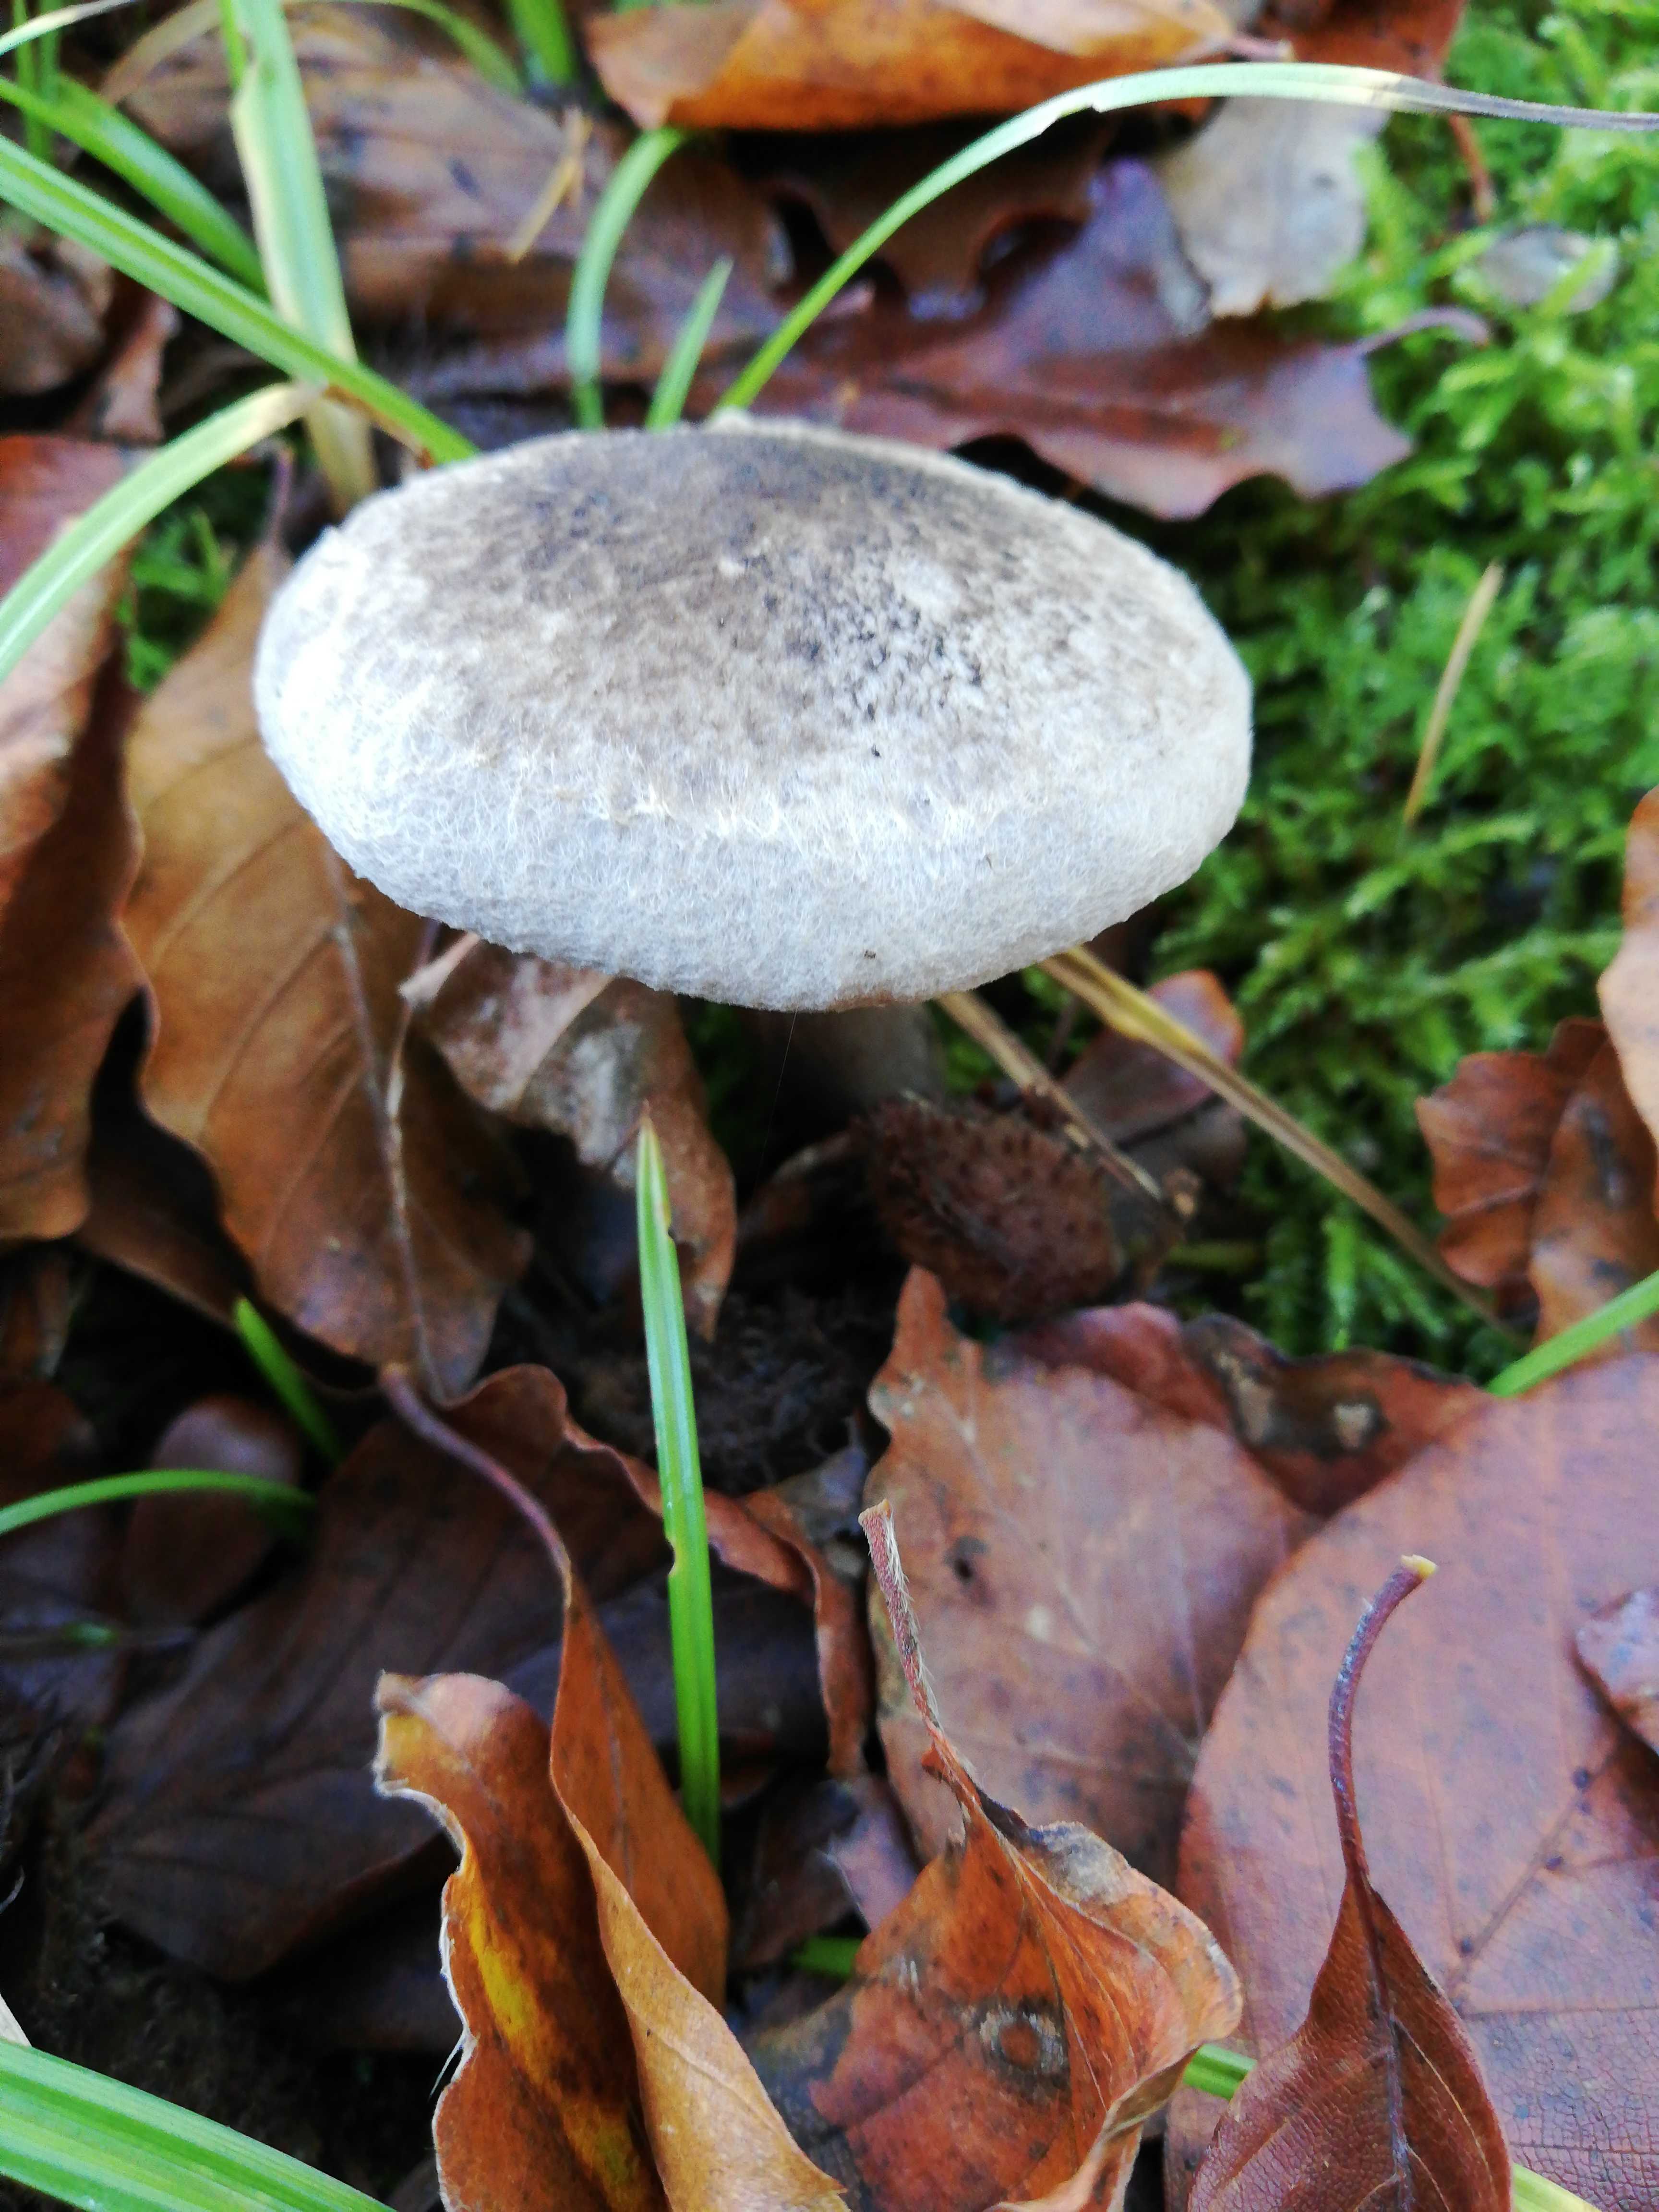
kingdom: Fungi
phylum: Basidiomycota
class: Agaricomycetes
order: Agaricales
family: Tricholomataceae
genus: Tricholoma
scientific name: Tricholoma atrosquamosum
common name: sortskællet ridderhat
